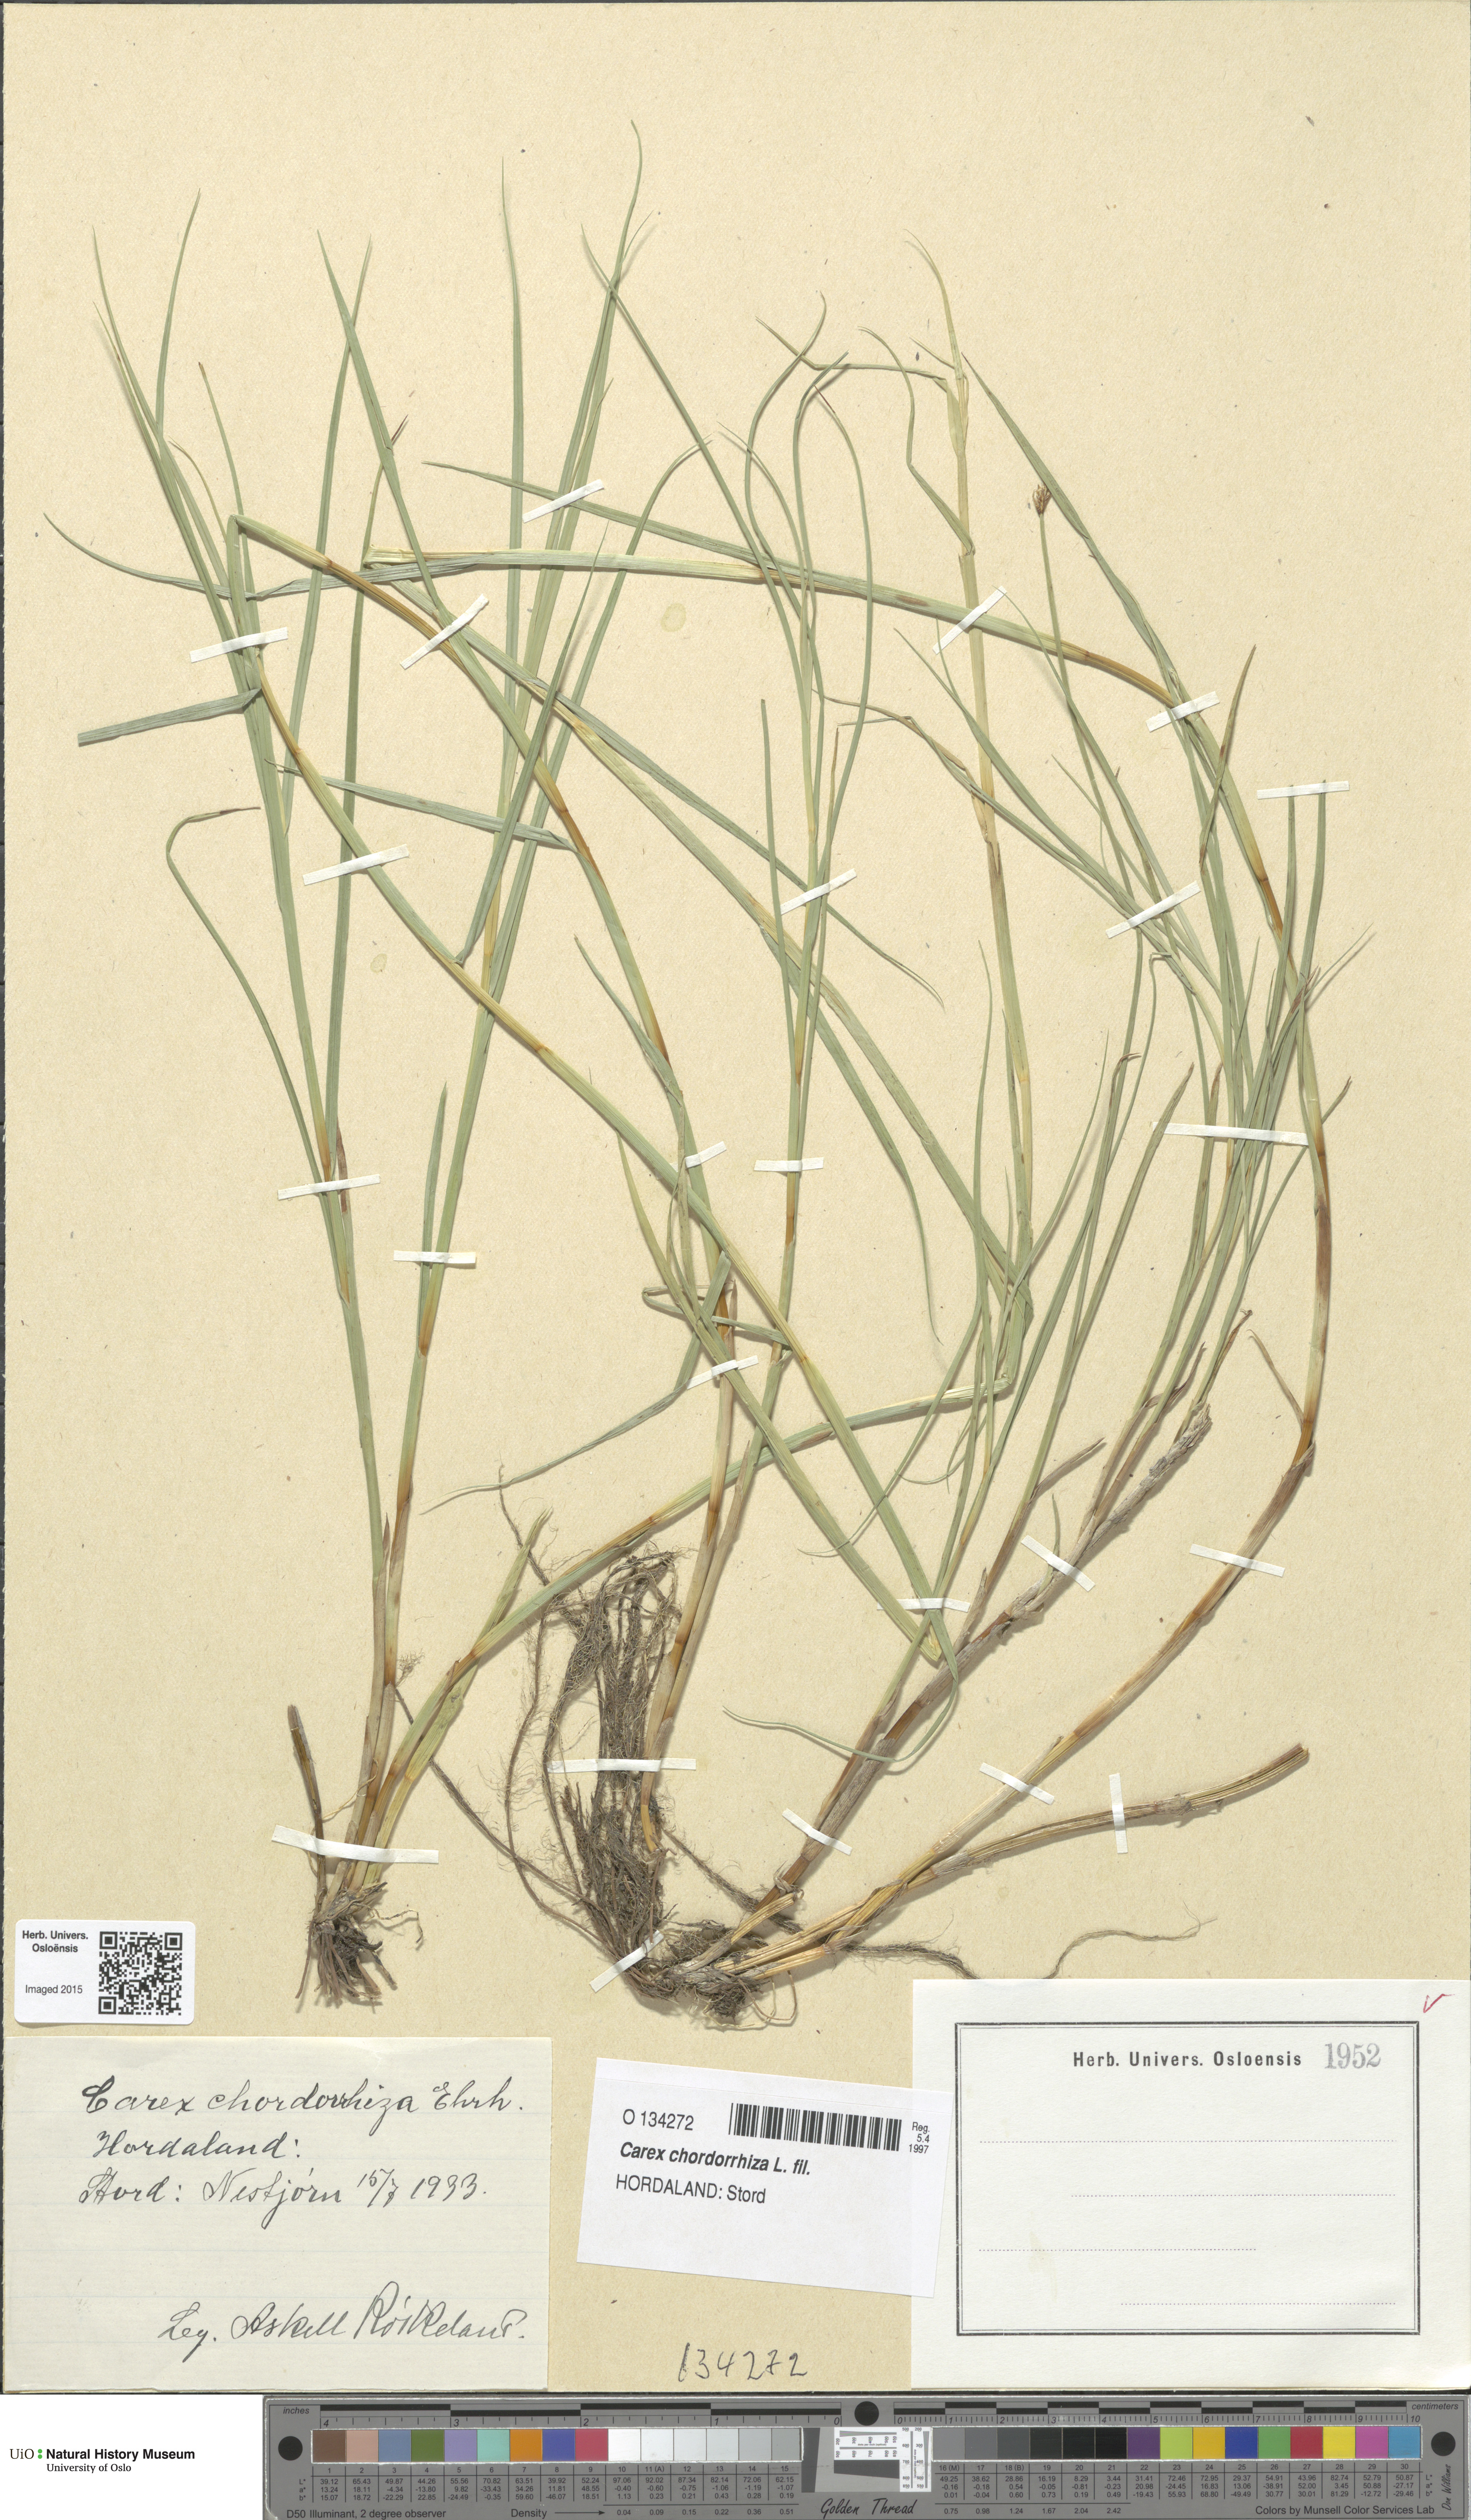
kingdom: Plantae
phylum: Tracheophyta
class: Liliopsida
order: Poales
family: Cyperaceae
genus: Carex
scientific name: Carex chordorrhiza
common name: String sedge
